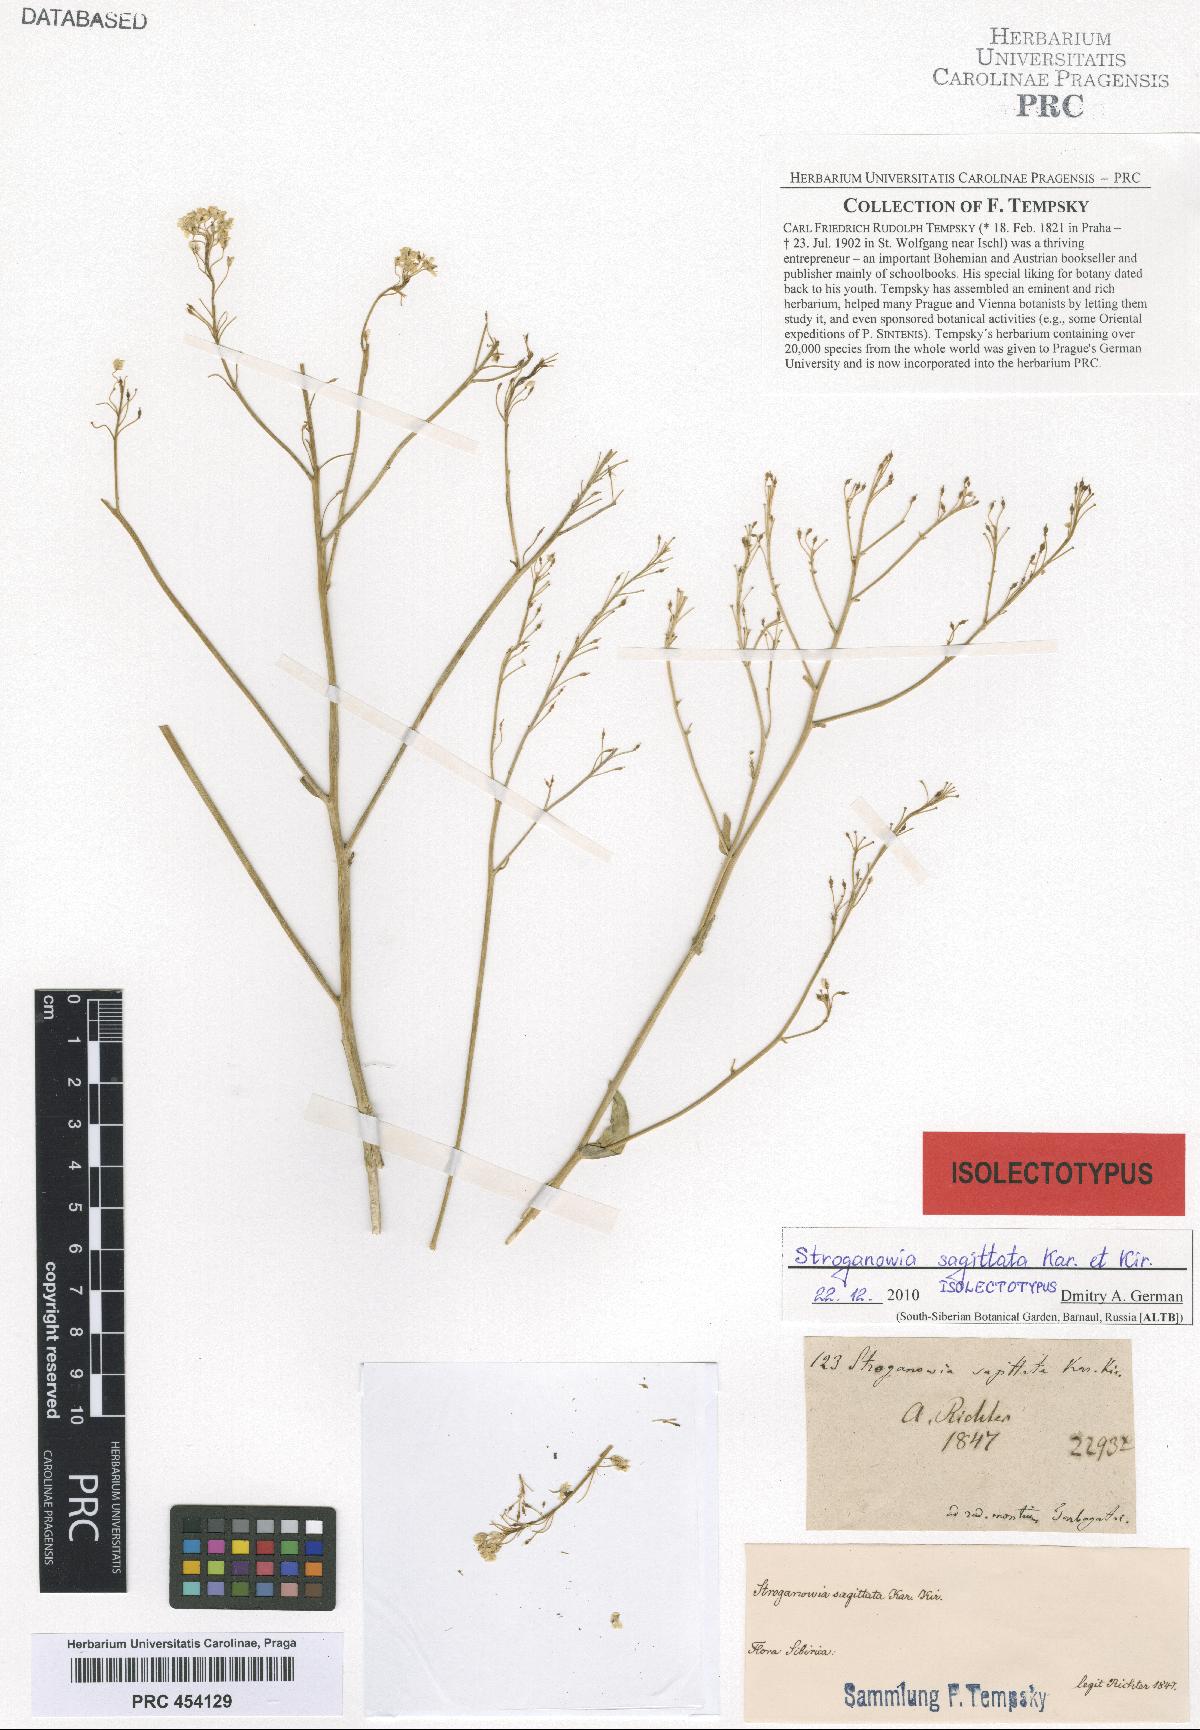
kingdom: Plantae
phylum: Tracheophyta
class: Magnoliopsida
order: Brassicales
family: Brassicaceae
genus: Lepidium
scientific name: Lepidium sagittatum
